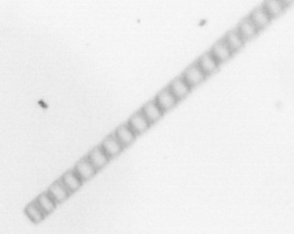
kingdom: Chromista
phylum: Ochrophyta
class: Bacillariophyceae
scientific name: Bacillariophyceae
